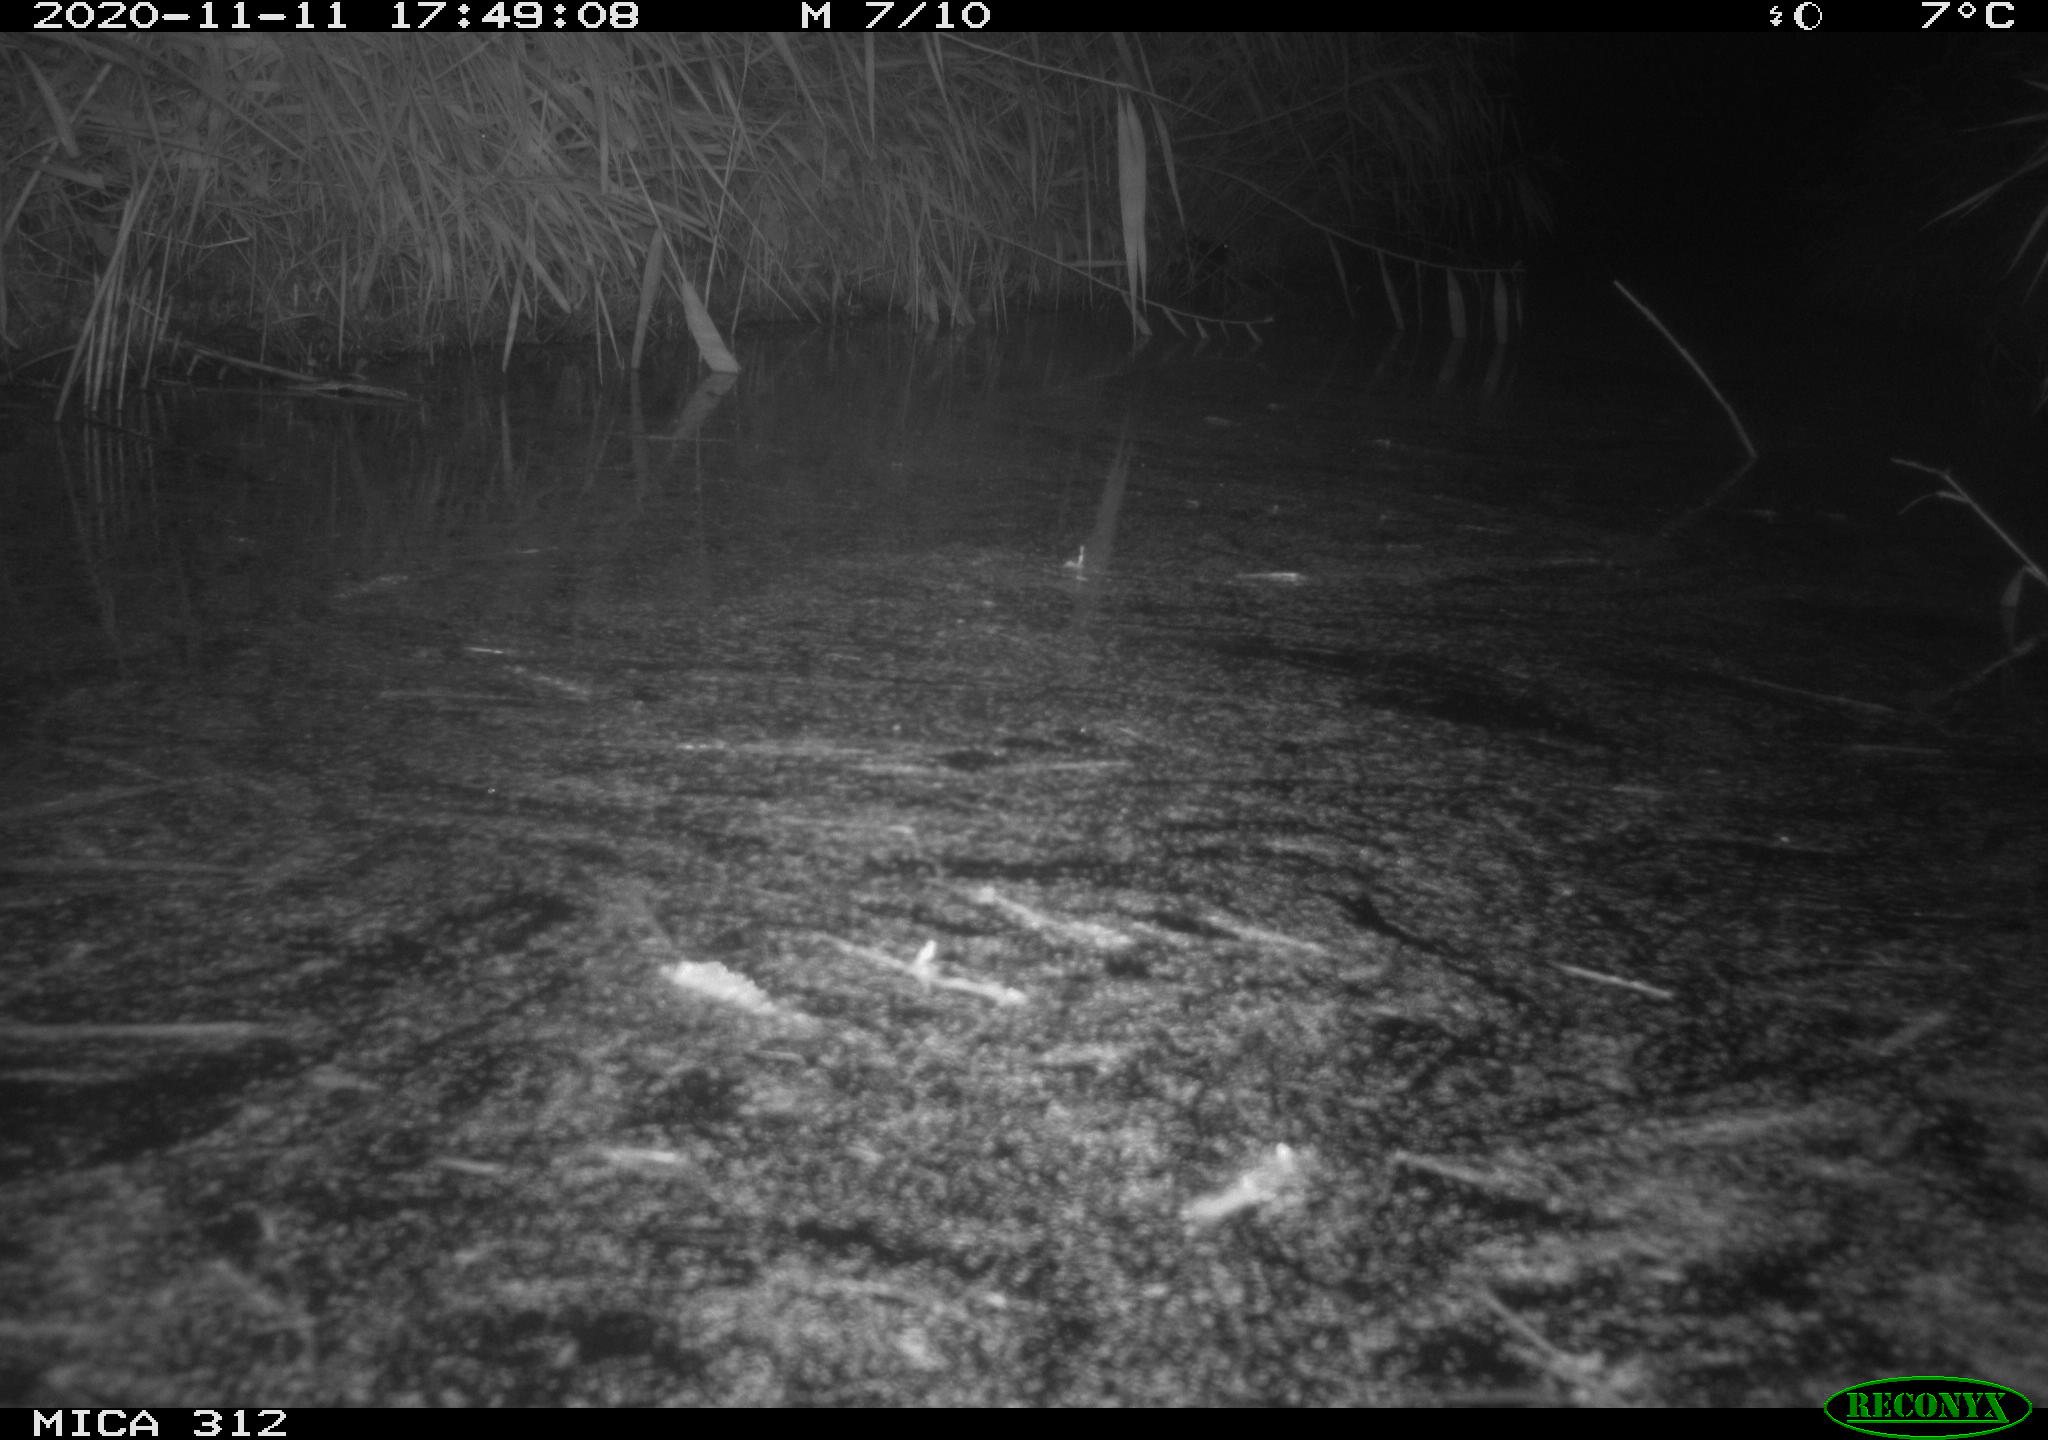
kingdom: Animalia
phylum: Chordata
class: Mammalia
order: Rodentia
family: Muridae
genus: Rattus
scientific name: Rattus norvegicus
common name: Brown rat
